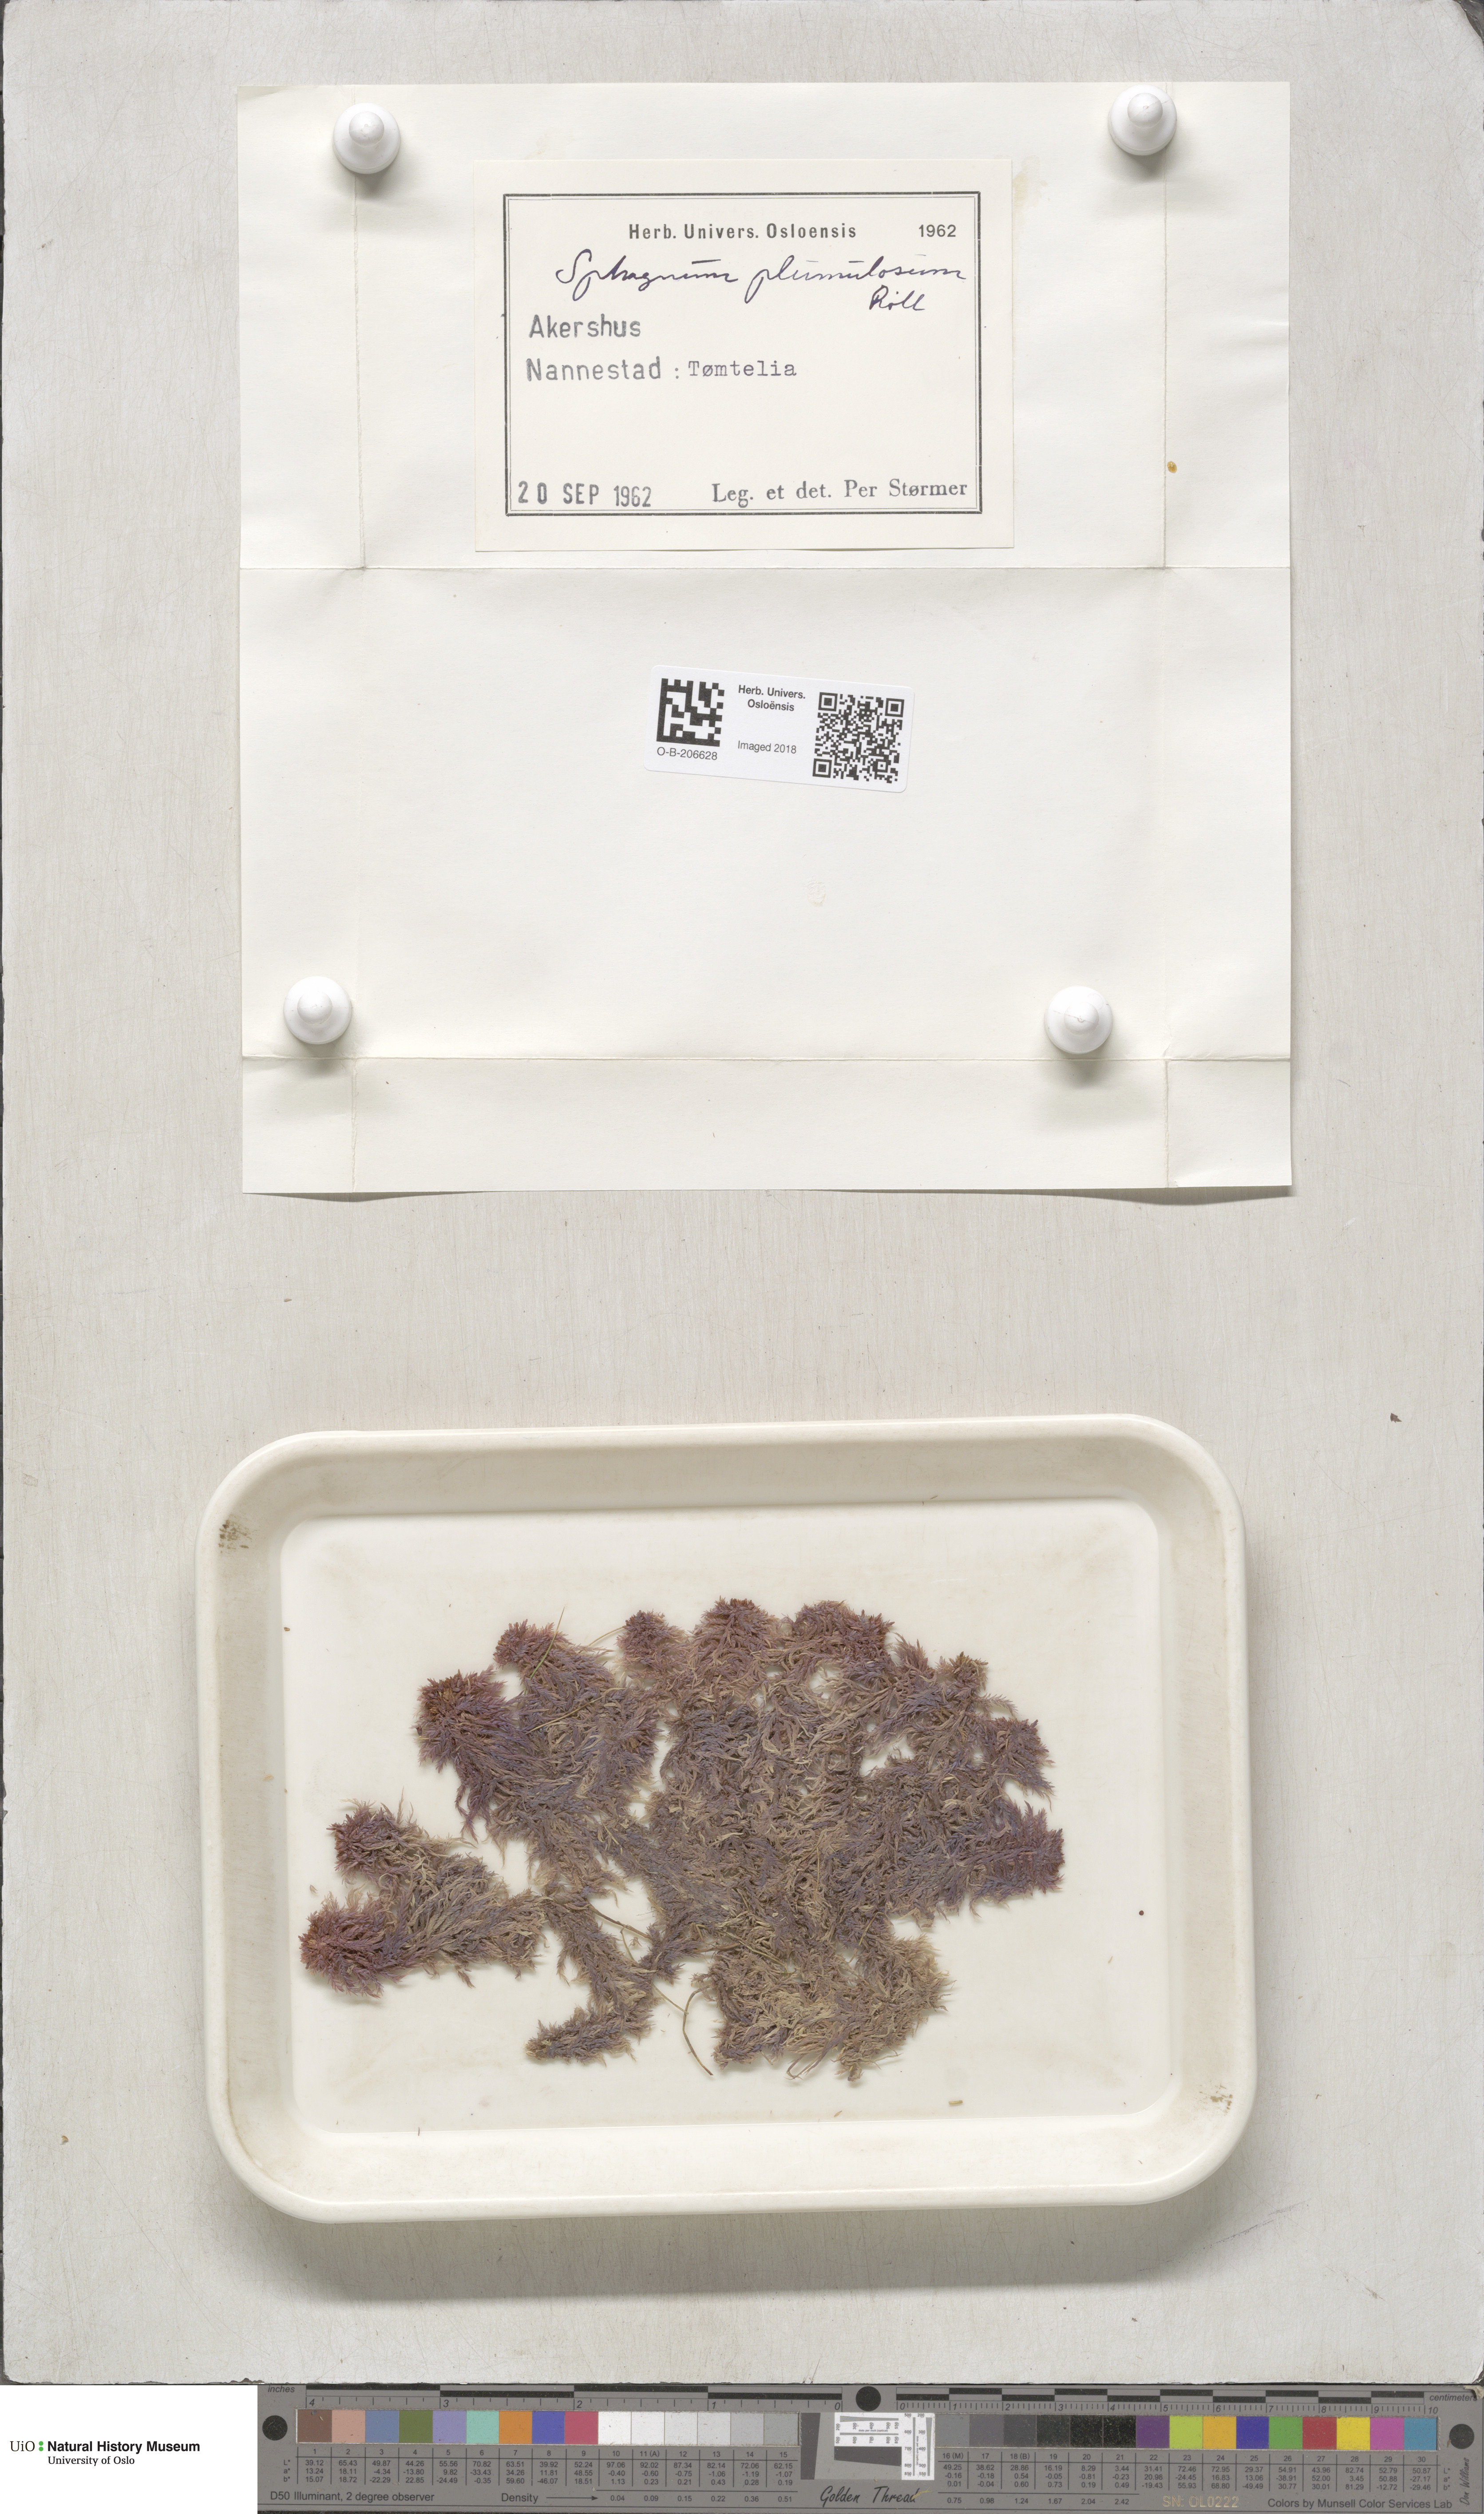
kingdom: Plantae
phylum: Bryophyta
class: Sphagnopsida
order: Sphagnales
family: Sphagnaceae
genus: Sphagnum
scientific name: Sphagnum subnitens
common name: Lustrous bog-moss
